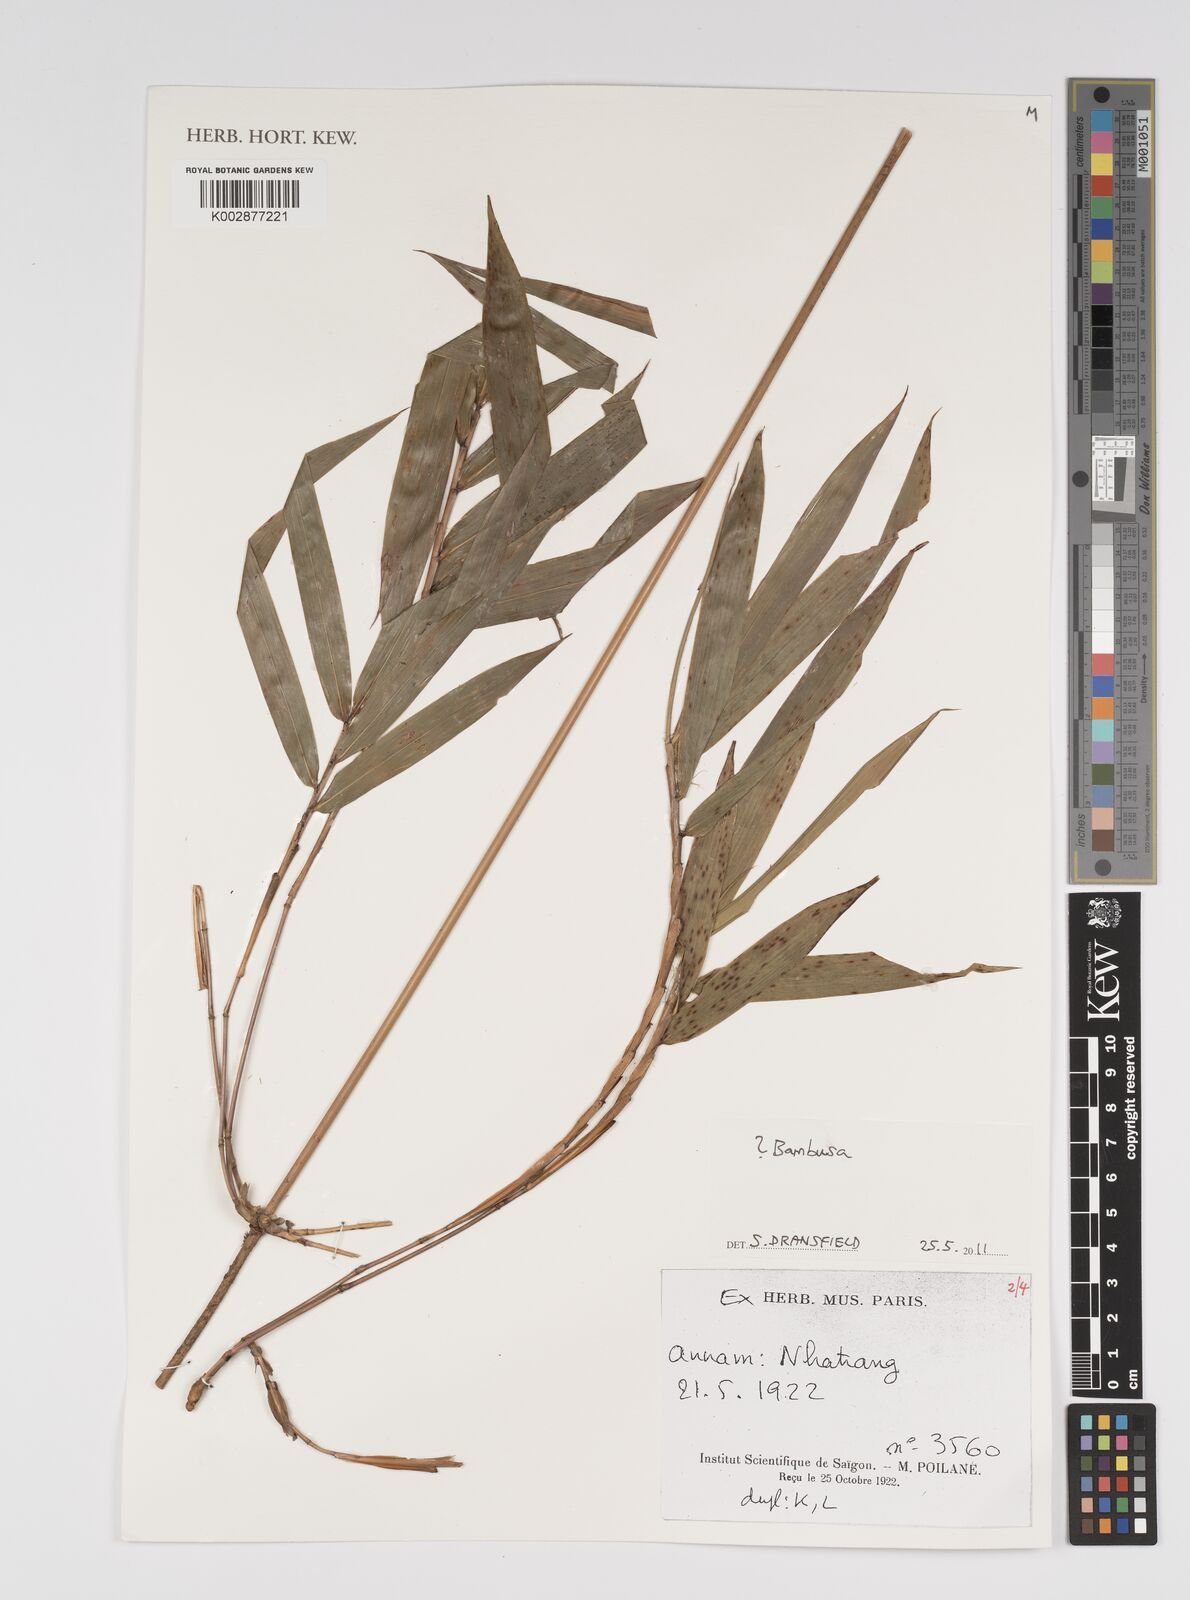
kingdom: Plantae
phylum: Tracheophyta
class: Liliopsida
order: Poales
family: Poaceae
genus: Bambusa
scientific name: Bambusa
